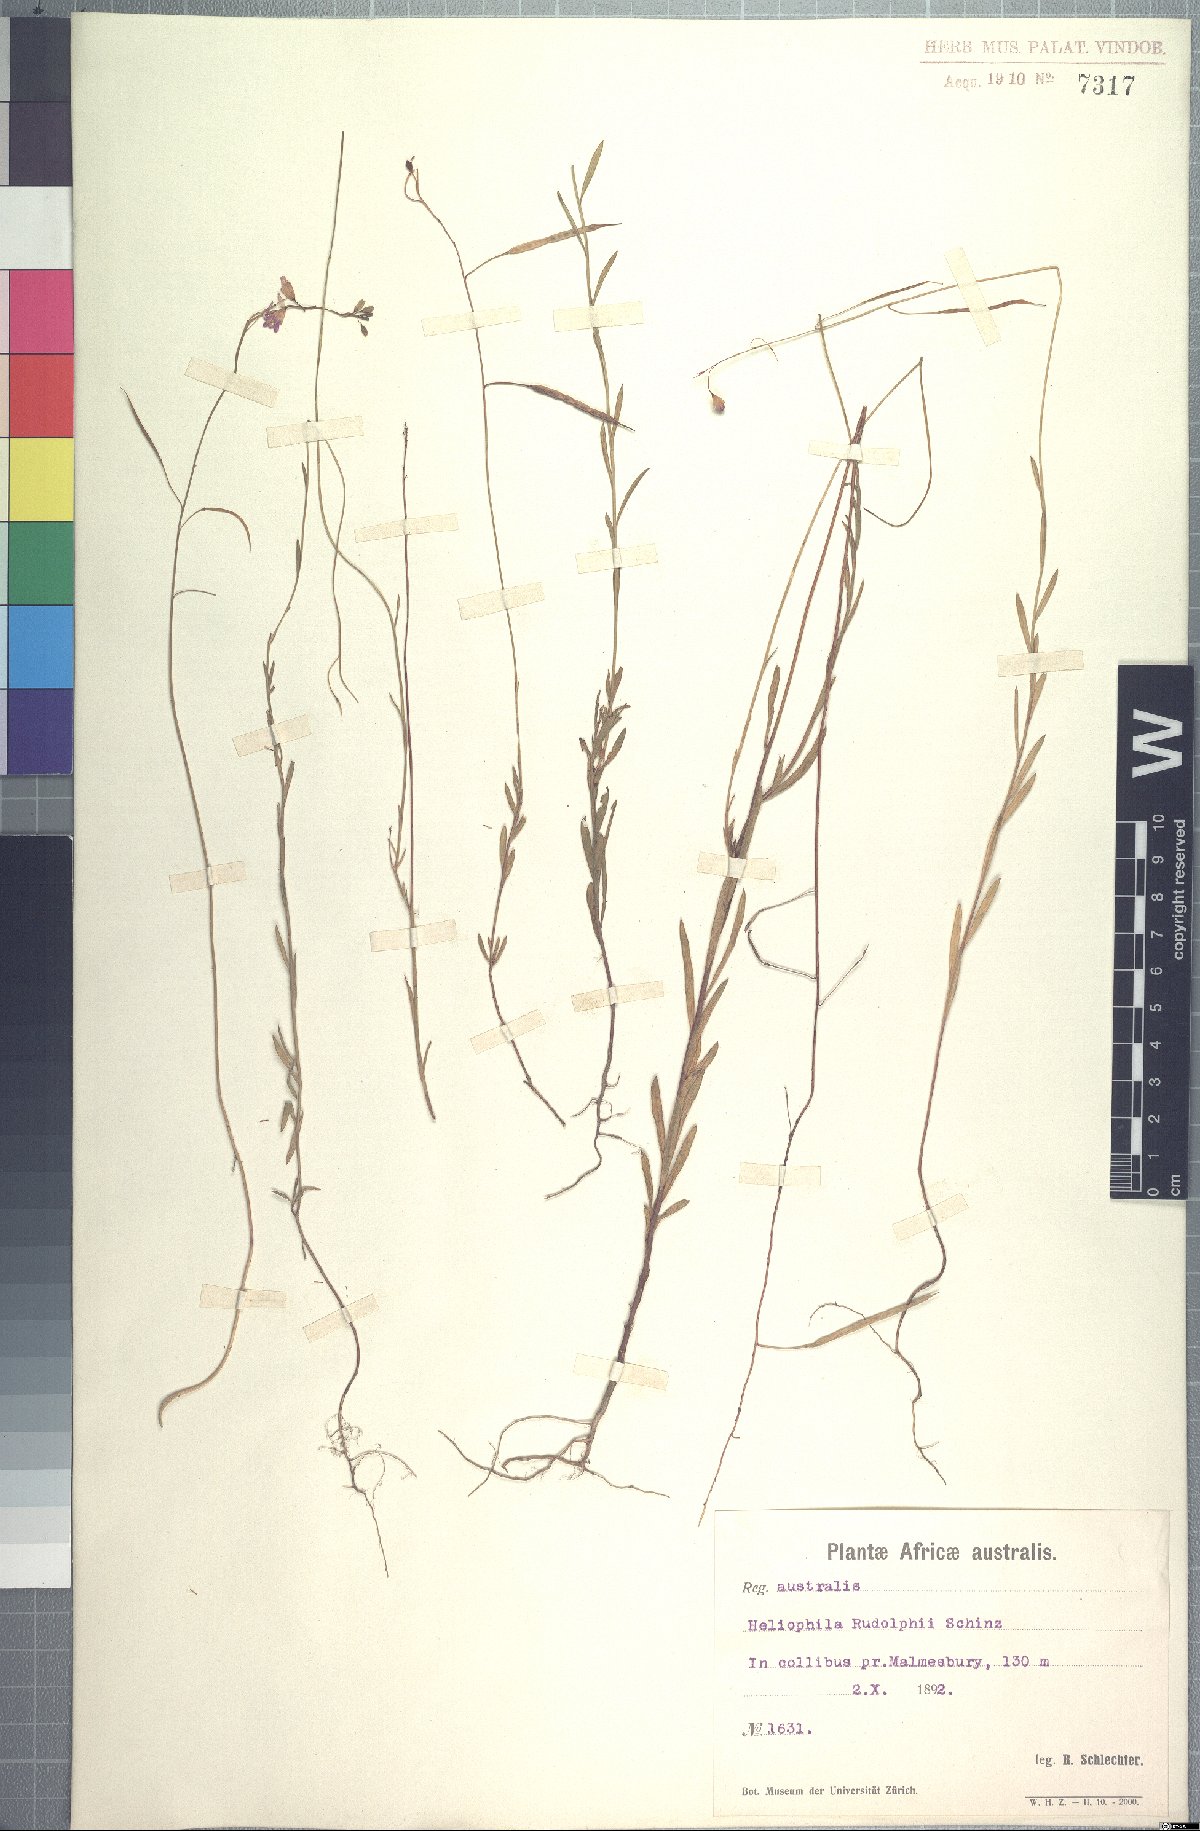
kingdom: Plantae
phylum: Tracheophyta
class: Magnoliopsida
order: Brassicales
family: Brassicaceae
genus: Heliophila
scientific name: Heliophila subulata
